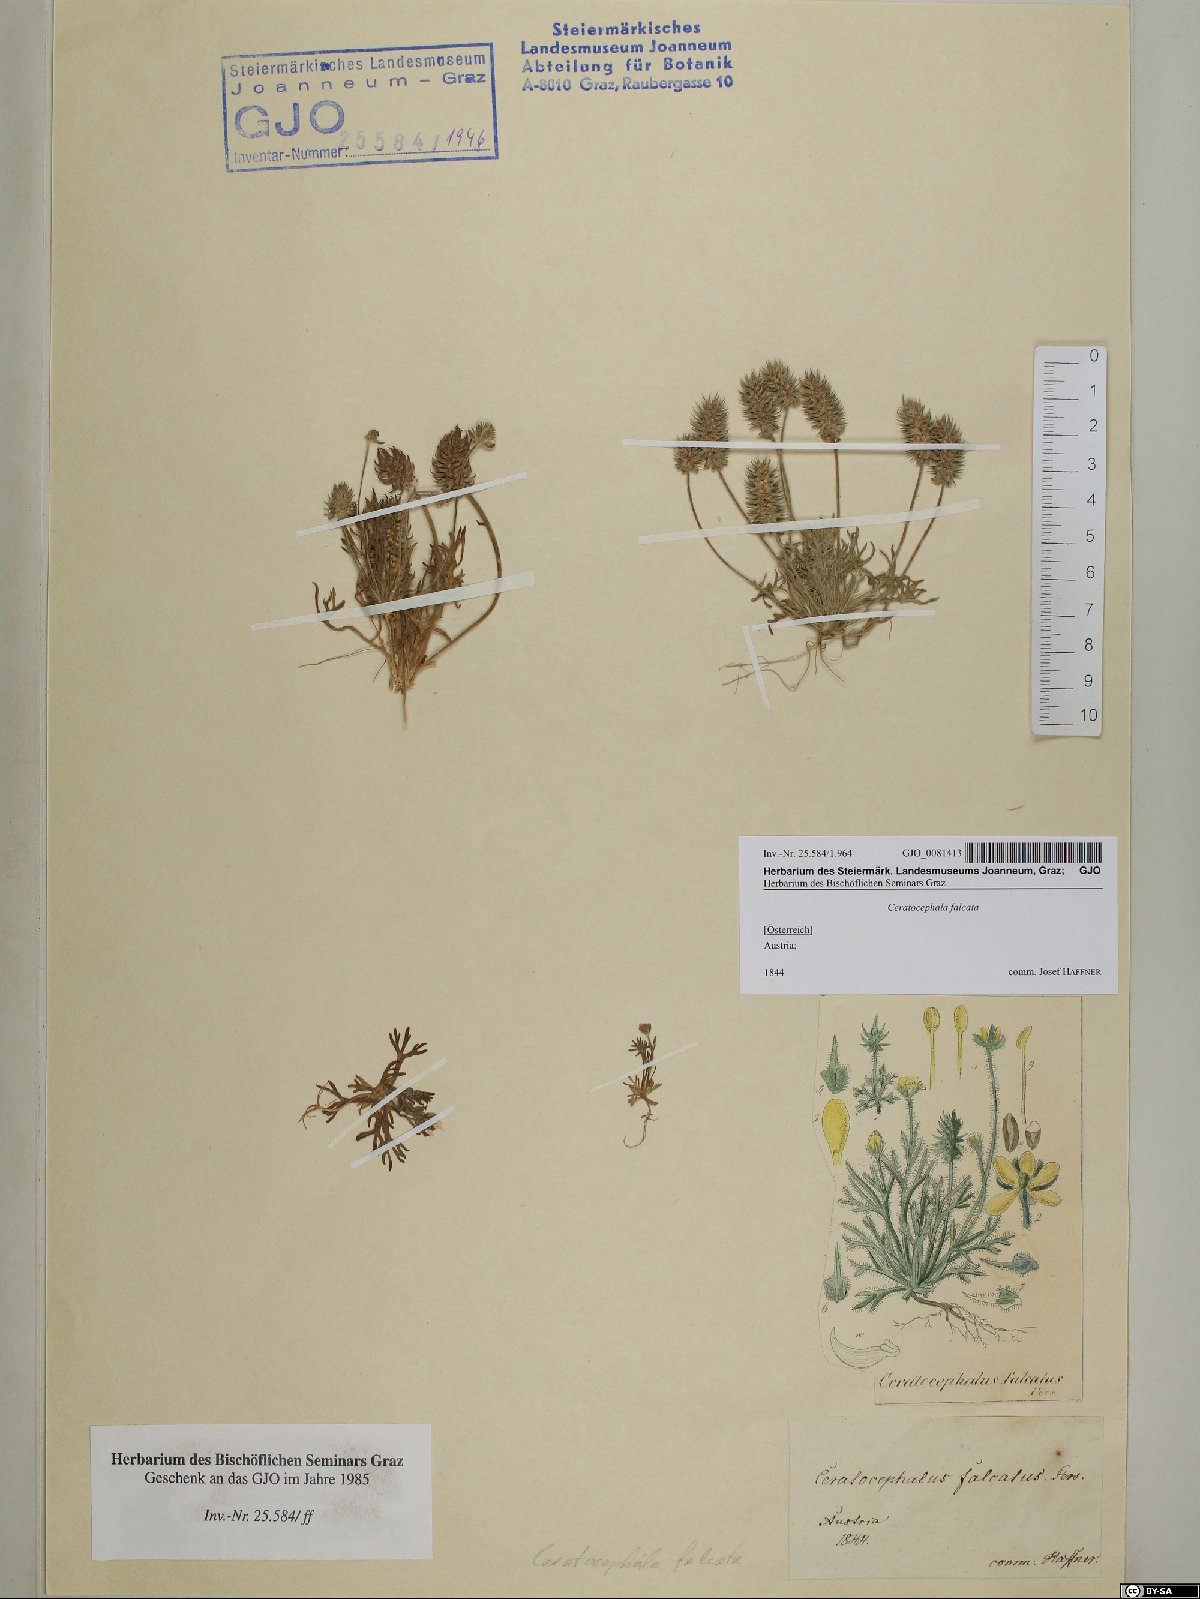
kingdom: Plantae
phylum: Tracheophyta
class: Magnoliopsida
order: Ranunculales
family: Ranunculaceae
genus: Ceratocephala
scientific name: Ceratocephala falcata
